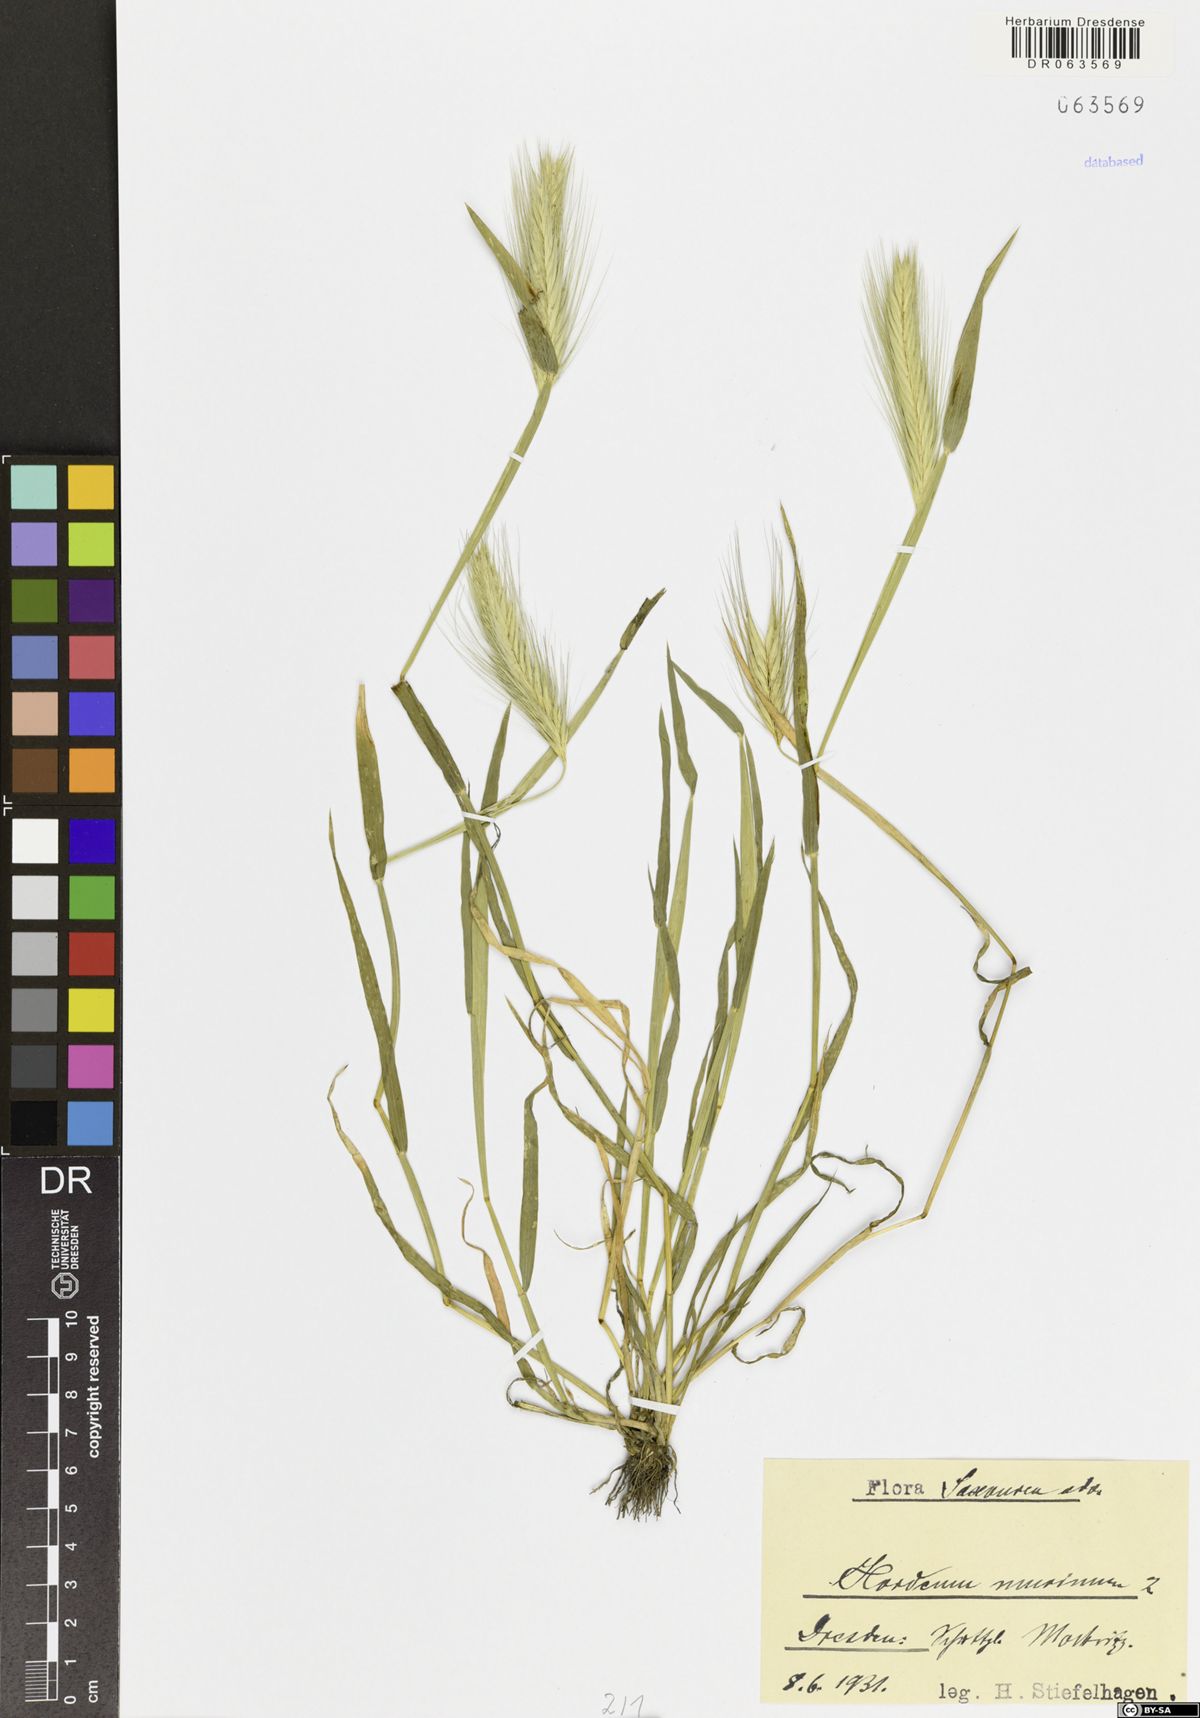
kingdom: Plantae
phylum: Tracheophyta
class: Liliopsida
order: Poales
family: Poaceae
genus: Hordeum
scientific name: Hordeum murinum
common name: Wall barley
